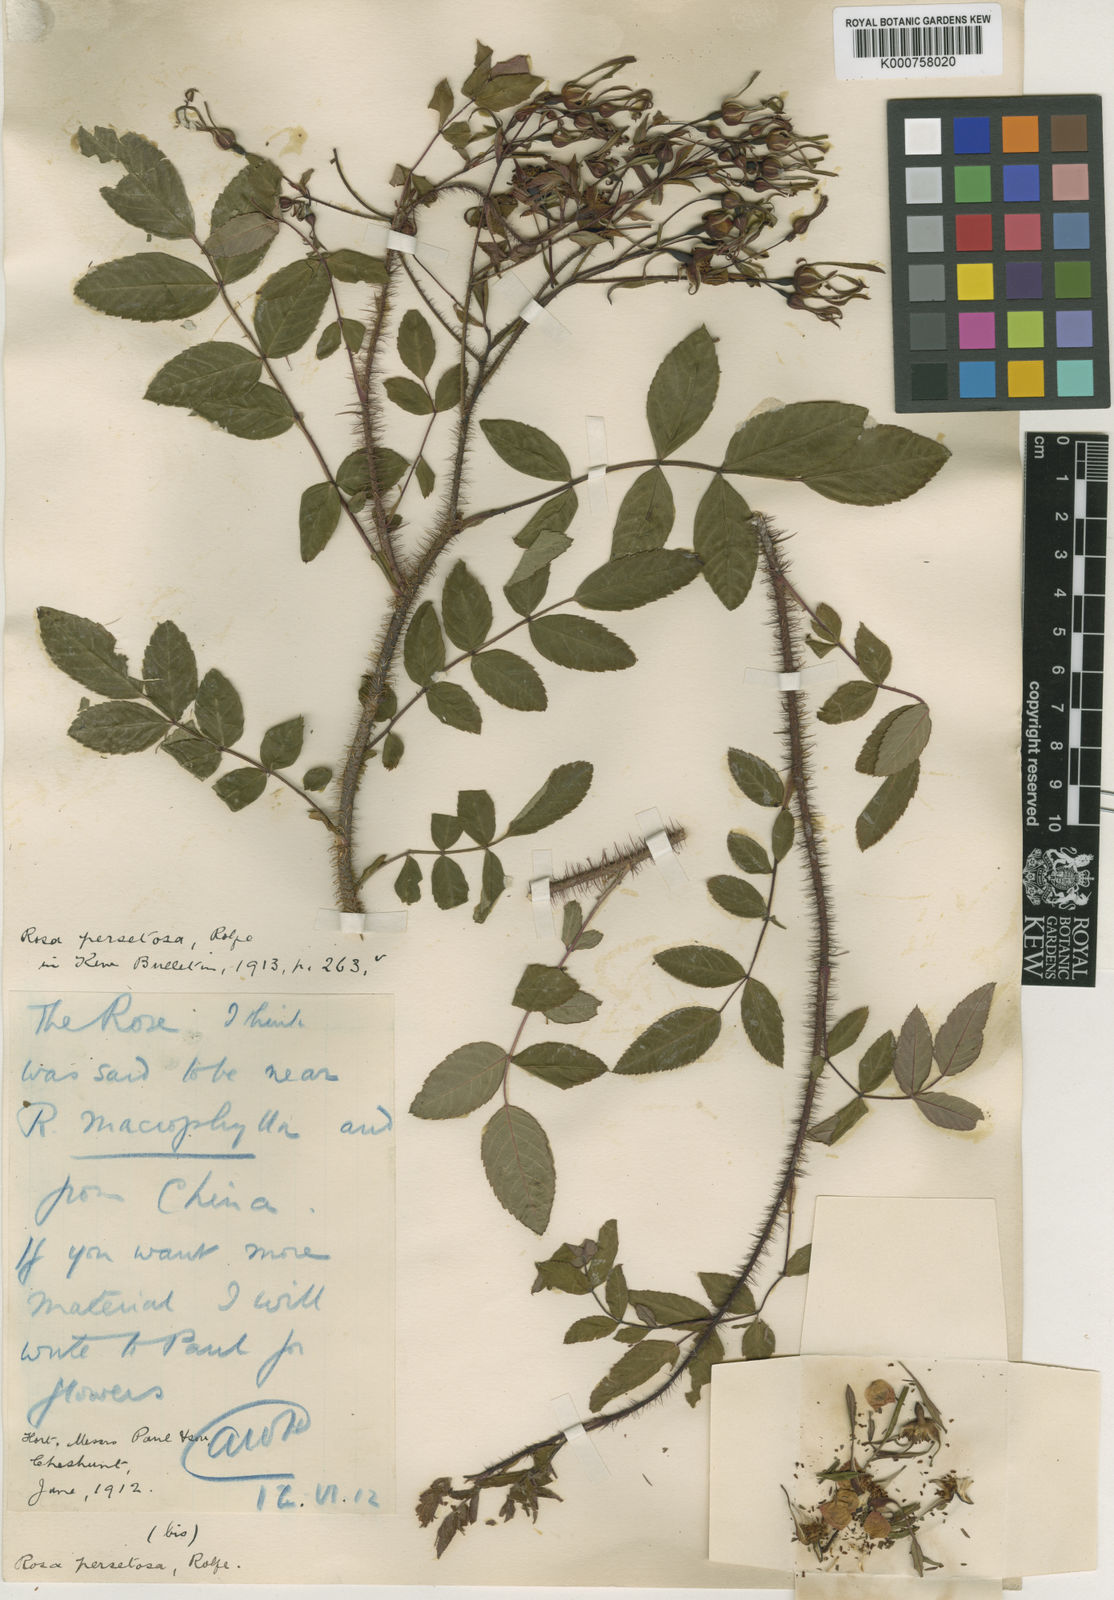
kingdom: Plantae
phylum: Tracheophyta
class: Magnoliopsida
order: Rosales
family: Rosaceae
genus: Rosa
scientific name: Rosa persetosa
